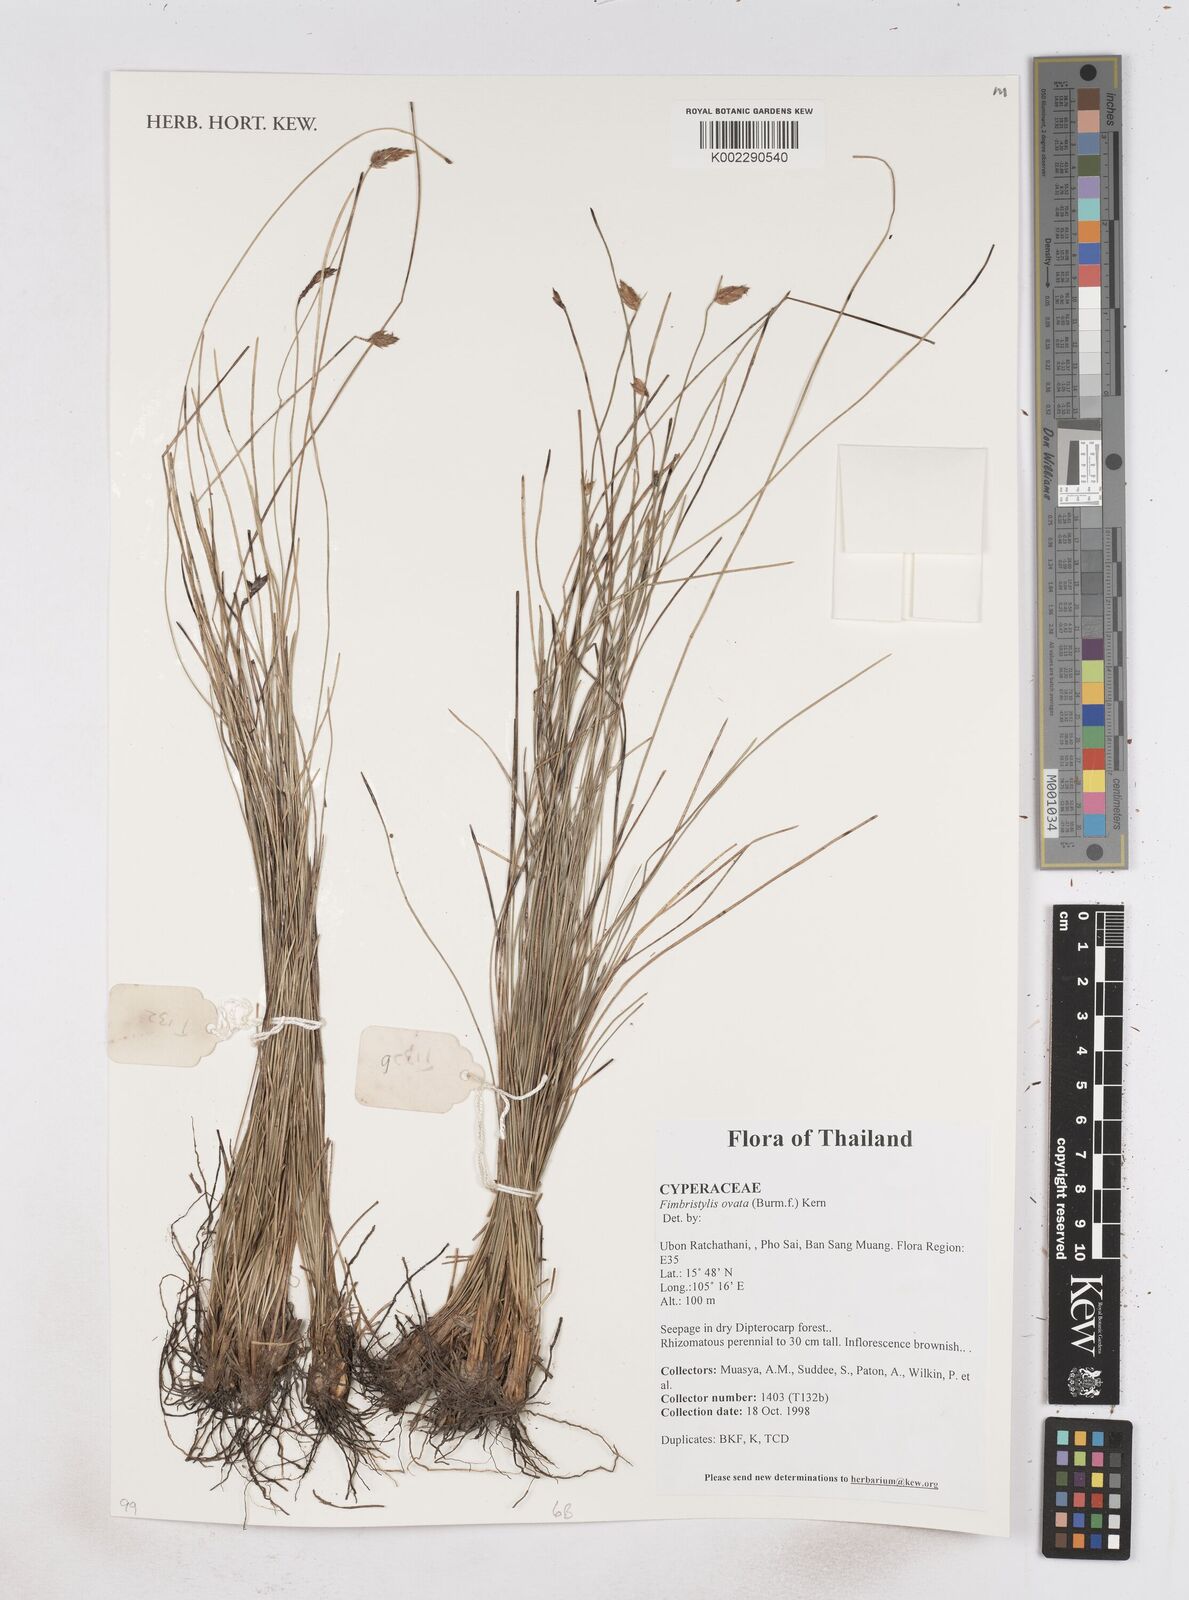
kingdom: Plantae
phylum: Tracheophyta
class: Liliopsida
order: Poales
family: Cyperaceae
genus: Abildgaardia
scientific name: Abildgaardia ovata
